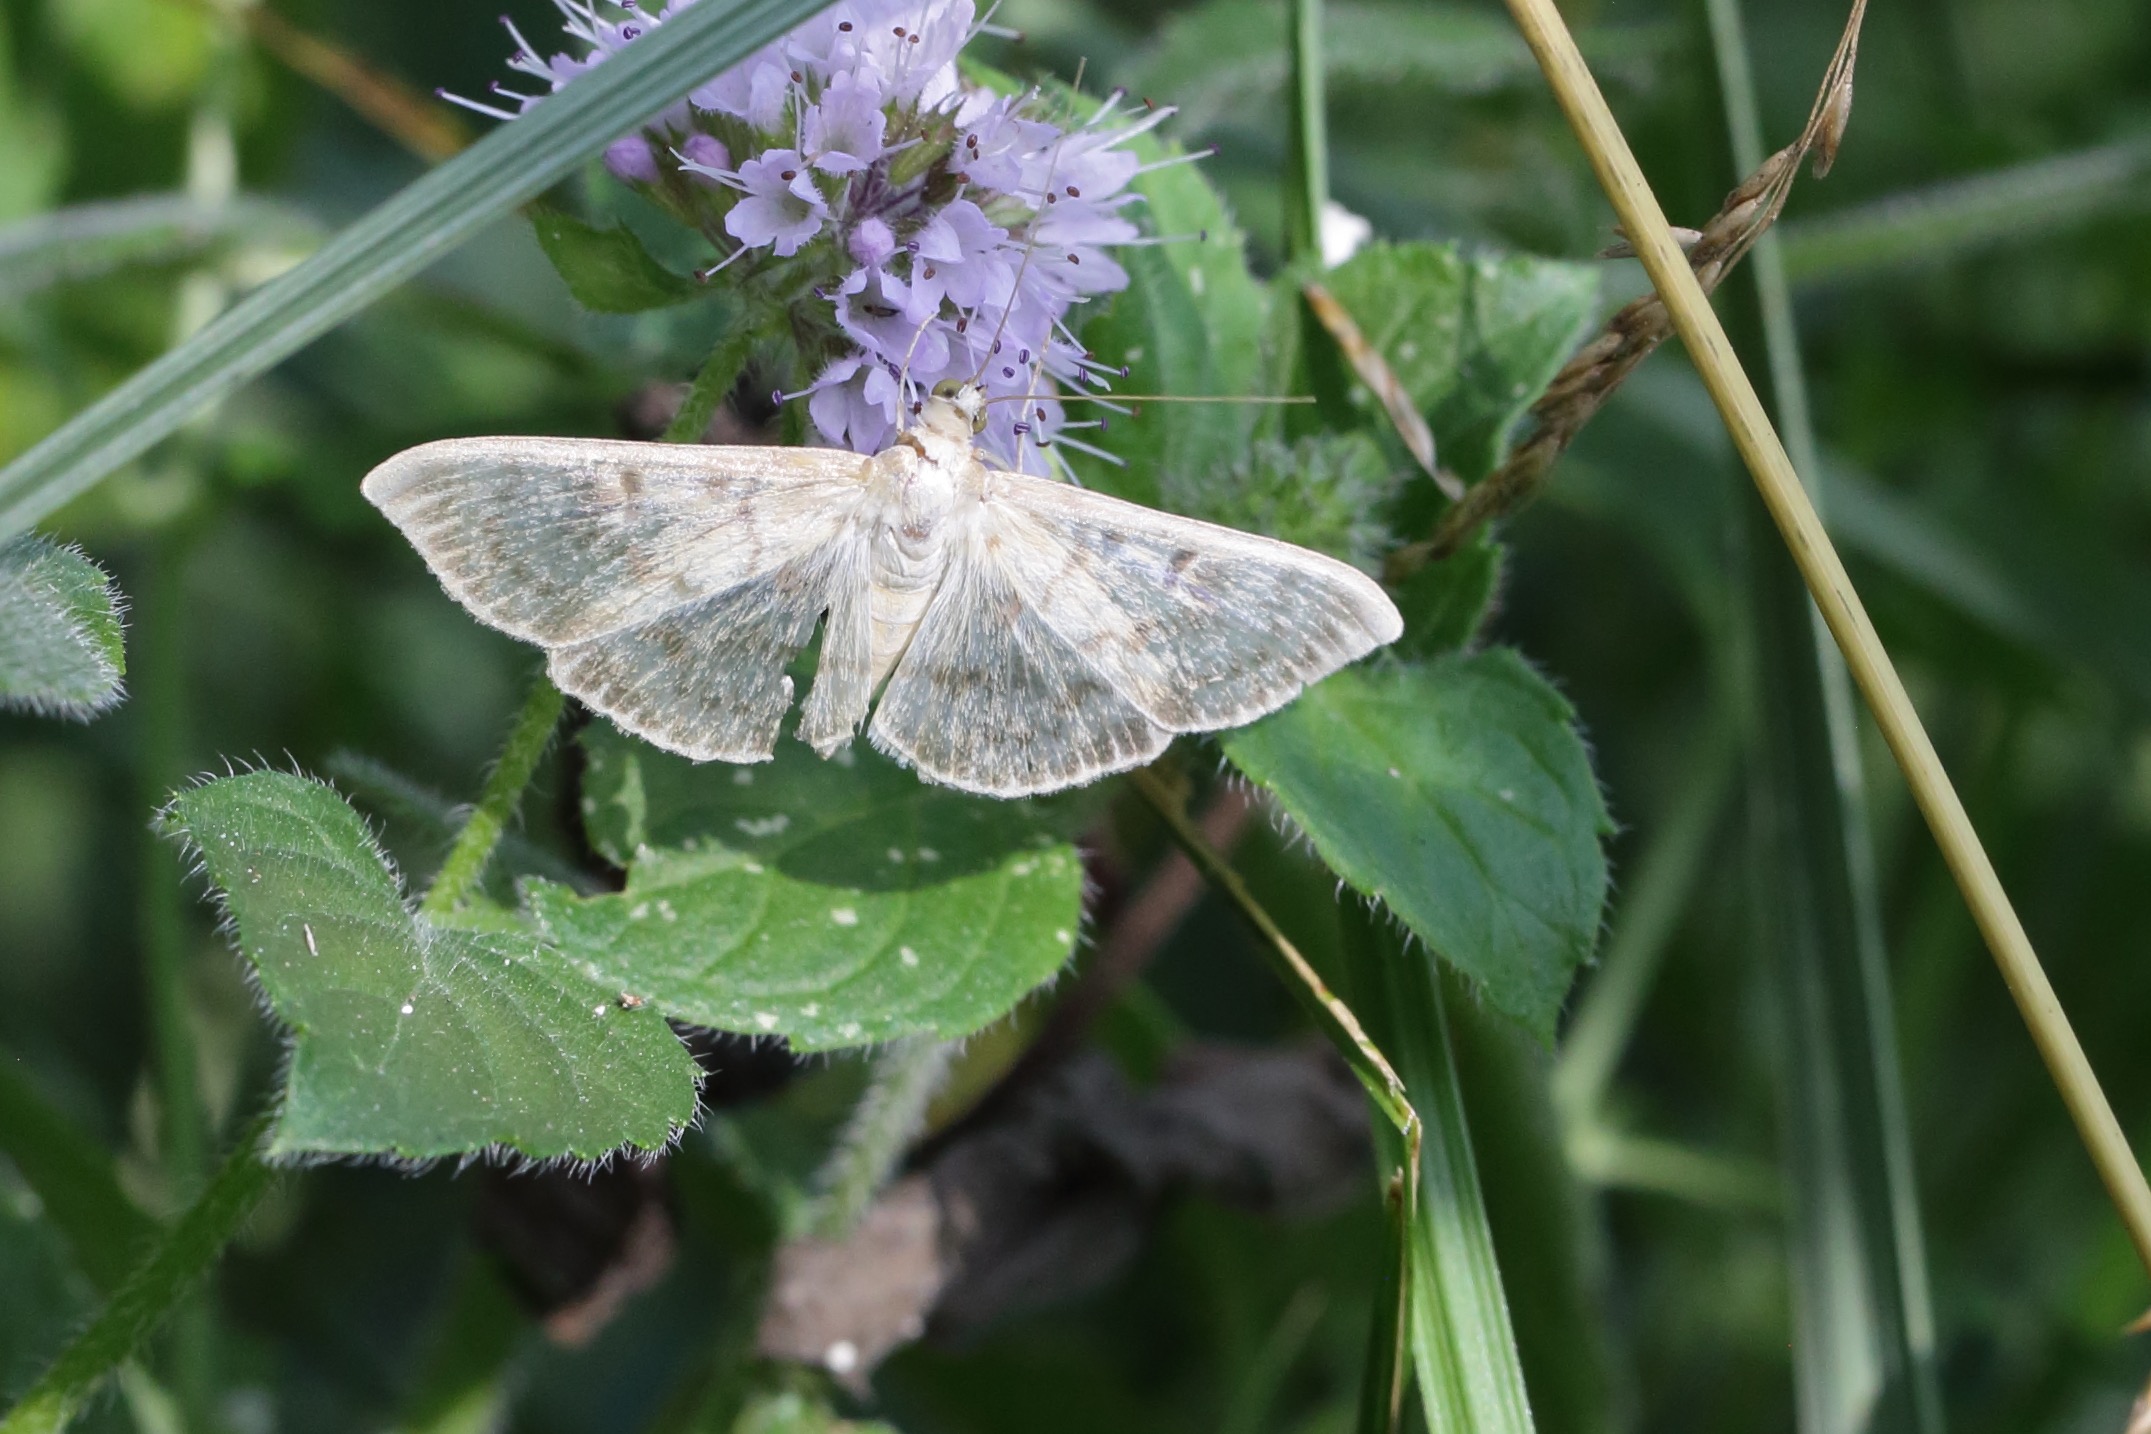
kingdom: Animalia
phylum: Arthropoda
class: Insecta
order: Lepidoptera
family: Crambidae
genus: Patania
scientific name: Patania ruralis
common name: Perlemorshalvmøl
